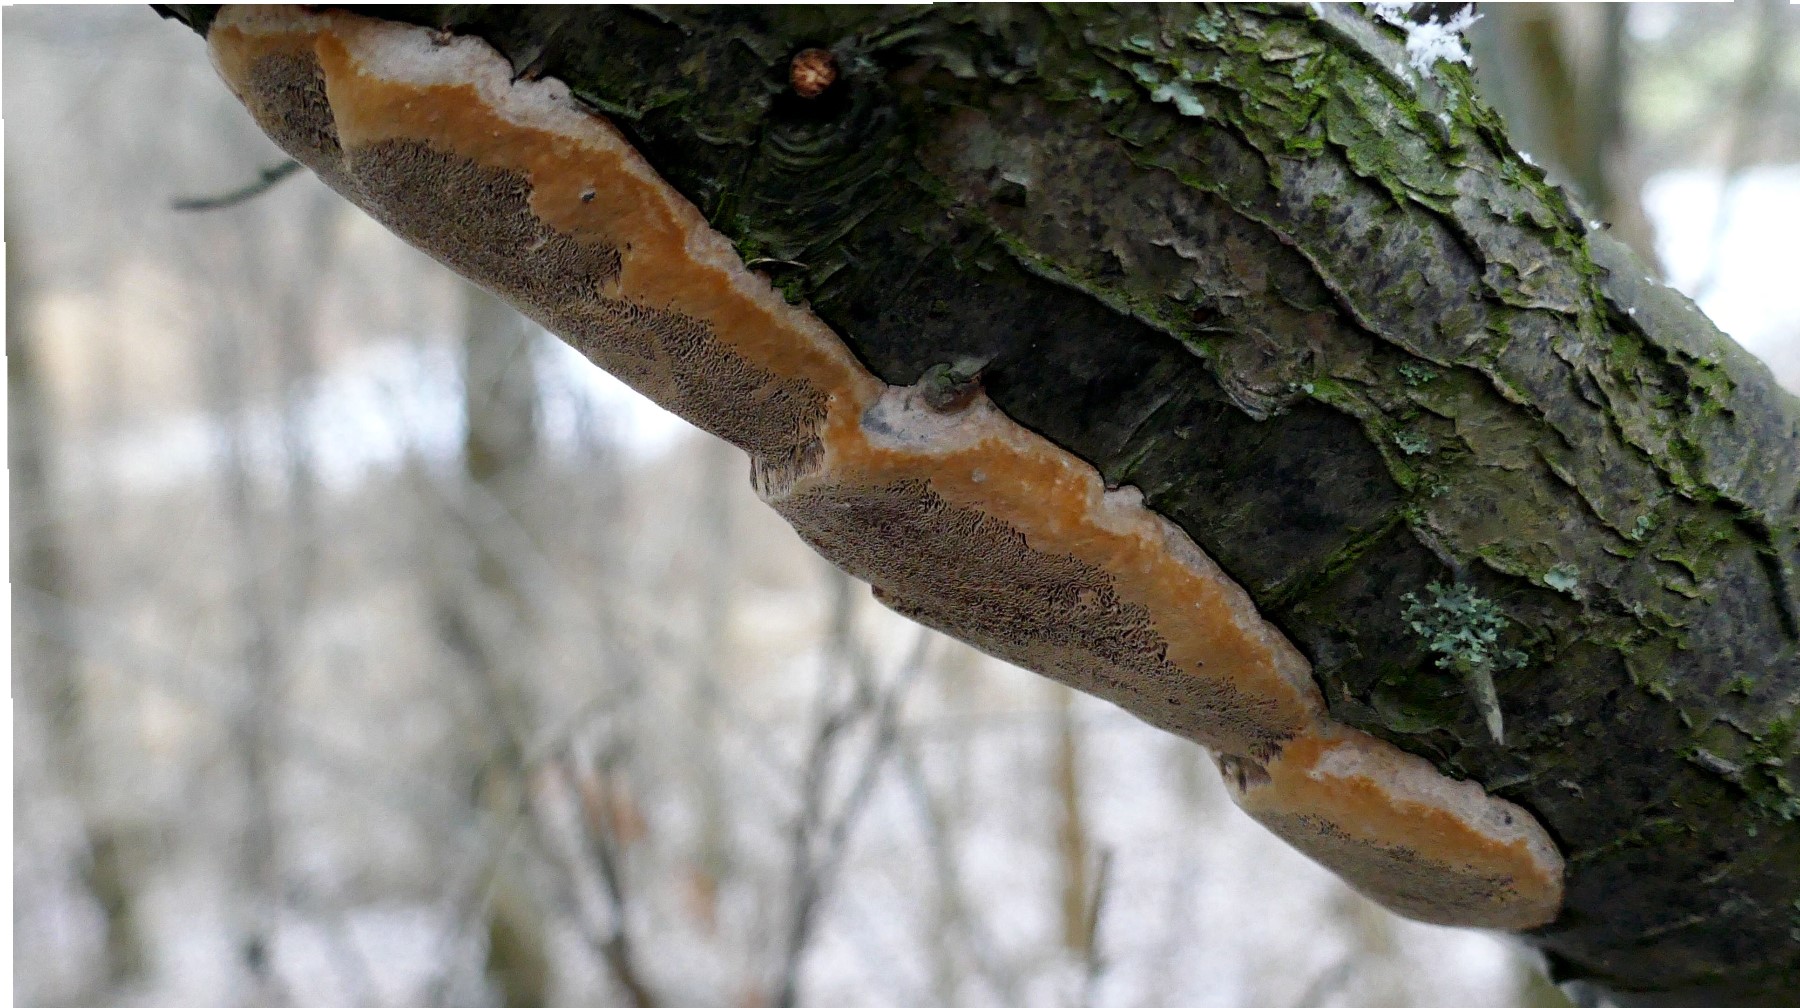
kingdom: Fungi
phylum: Basidiomycota
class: Agaricomycetes
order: Hymenochaetales
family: Hymenochaetaceae
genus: Phellinus
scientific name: Phellinus pomaceus
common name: blomme-ildporesvamp
